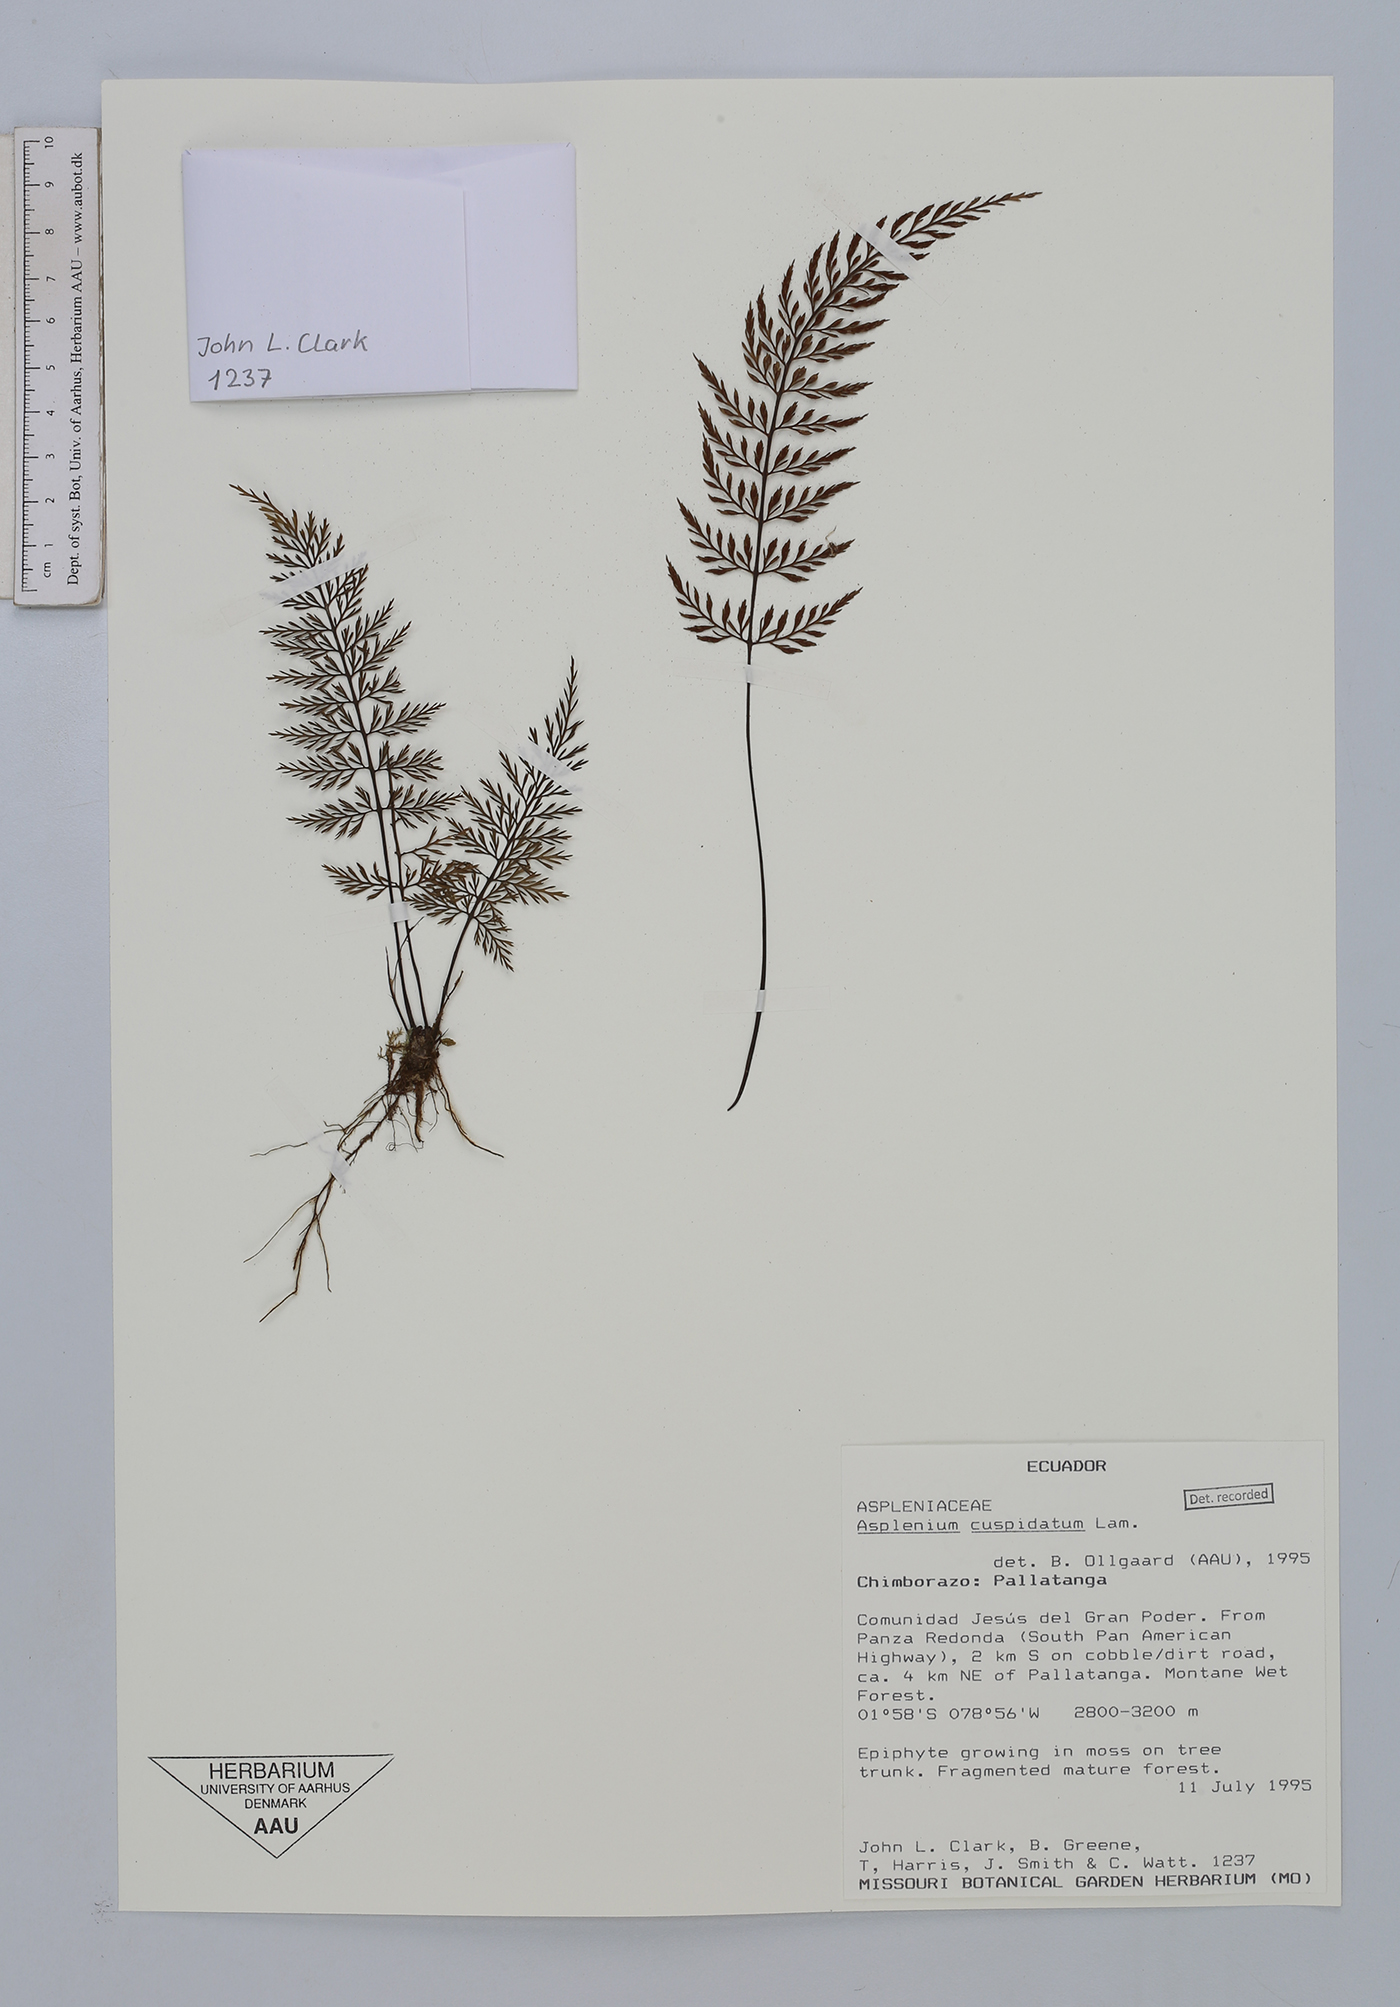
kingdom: Plantae
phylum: Tracheophyta
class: Polypodiopsida
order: Polypodiales
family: Aspleniaceae
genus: Asplenium
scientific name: Asplenium cuspidatum
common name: Eared spleenwort
